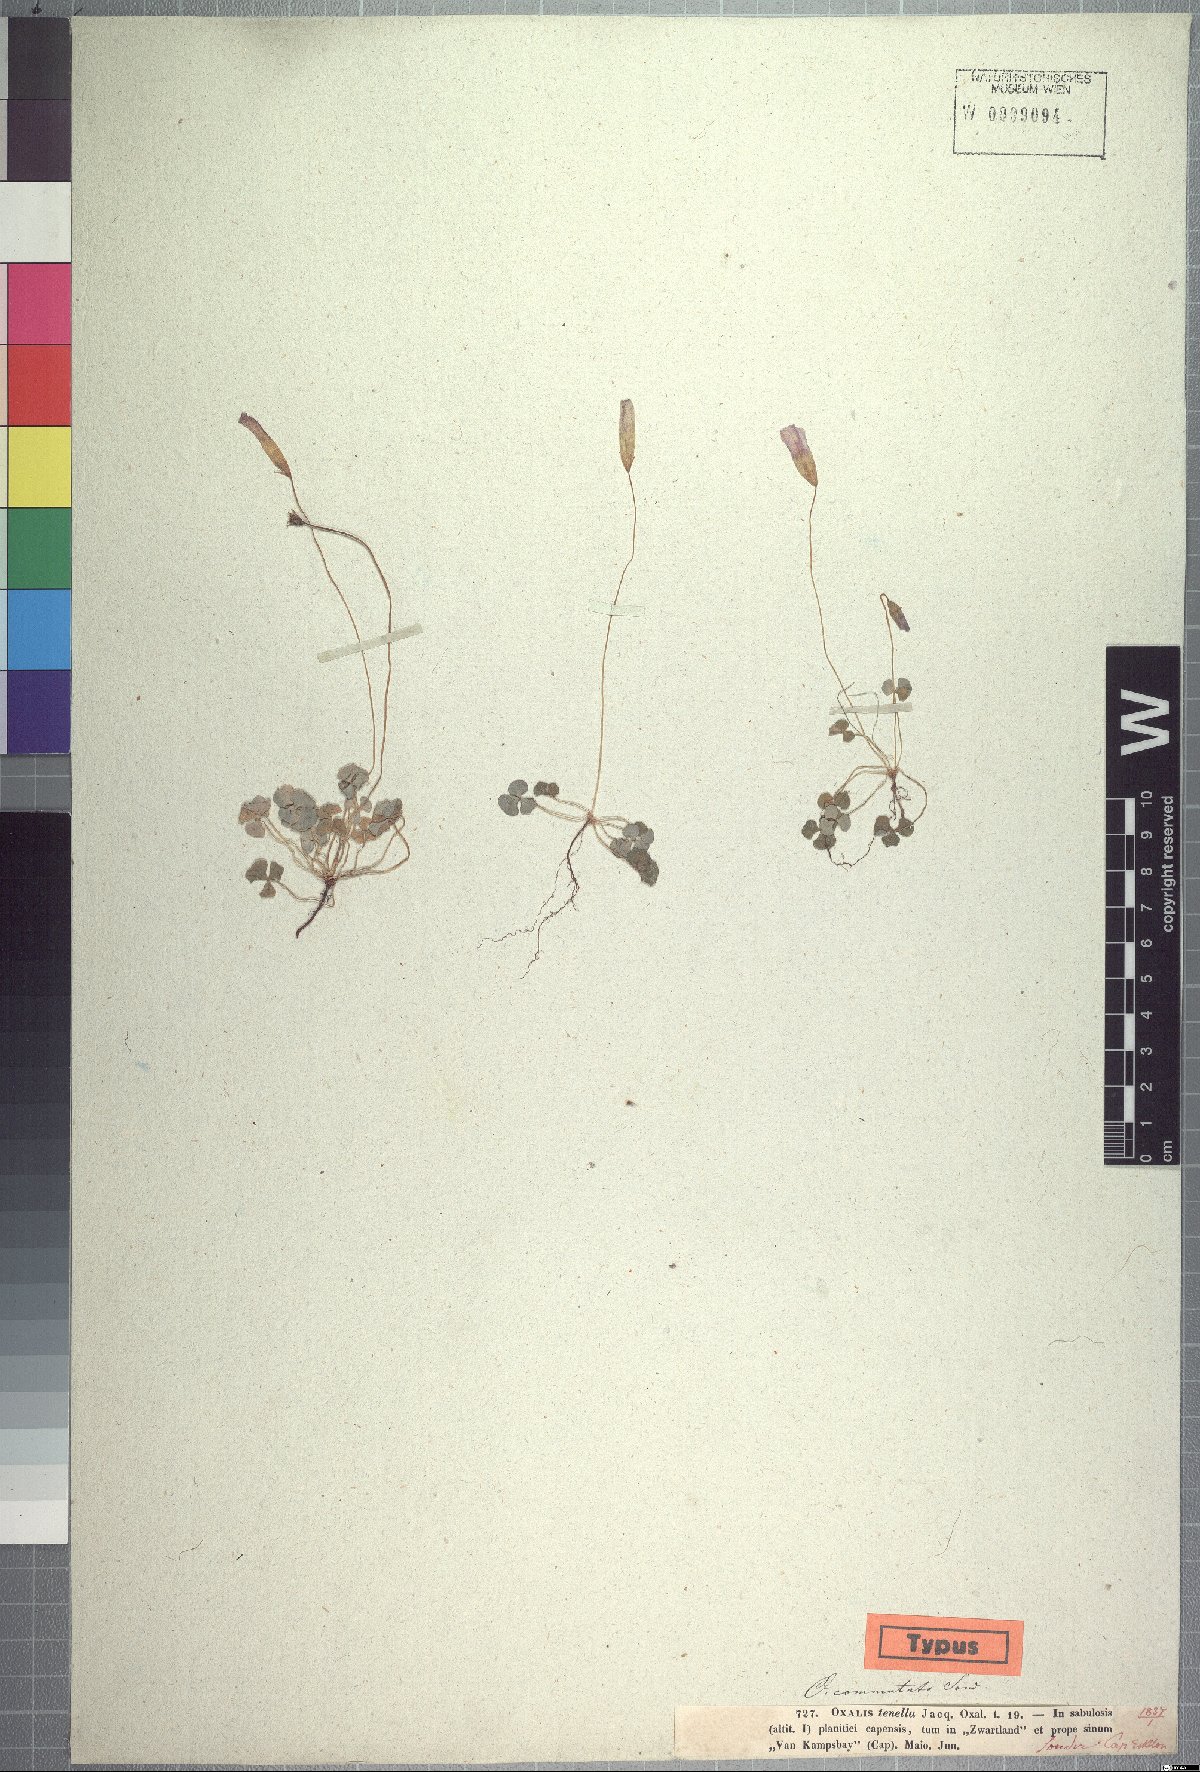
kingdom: Plantae
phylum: Tracheophyta
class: Magnoliopsida
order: Oxalidales
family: Oxalidaceae
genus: Oxalis
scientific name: Oxalis commutata
